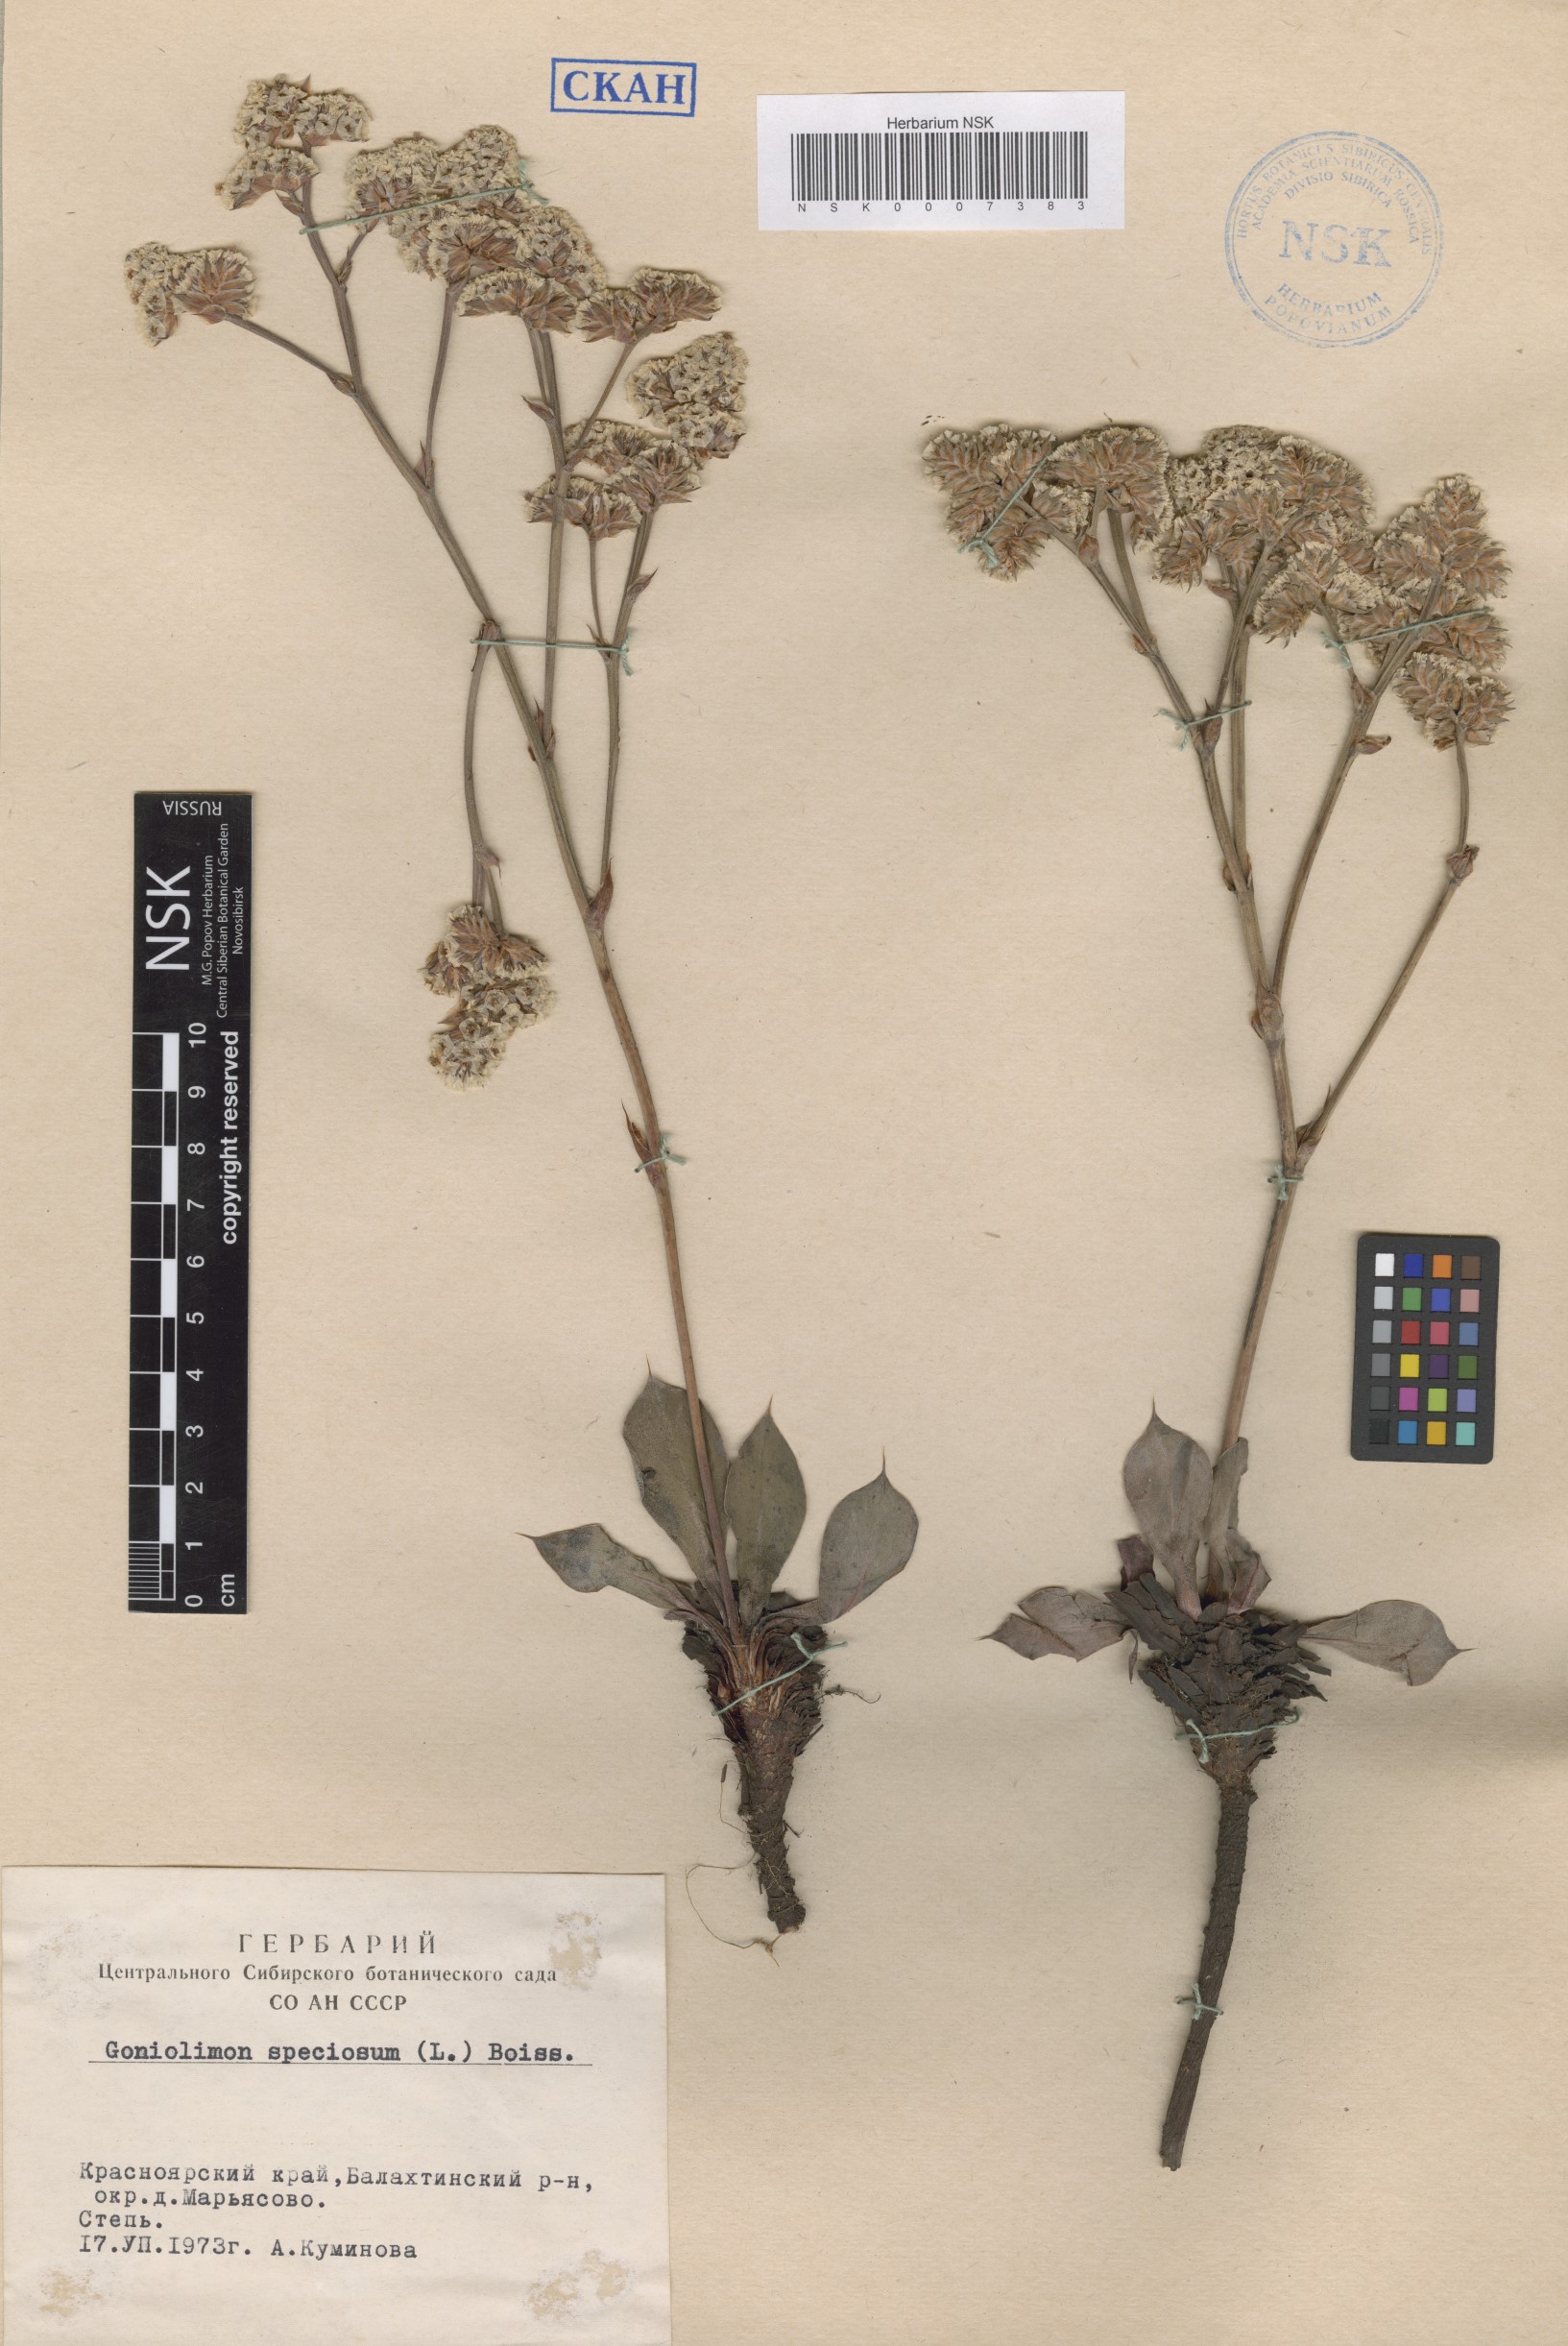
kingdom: Plantae
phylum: Tracheophyta
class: Magnoliopsida
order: Caryophyllales
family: Plumbaginaceae
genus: Goniolimon
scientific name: Goniolimon speciosum
